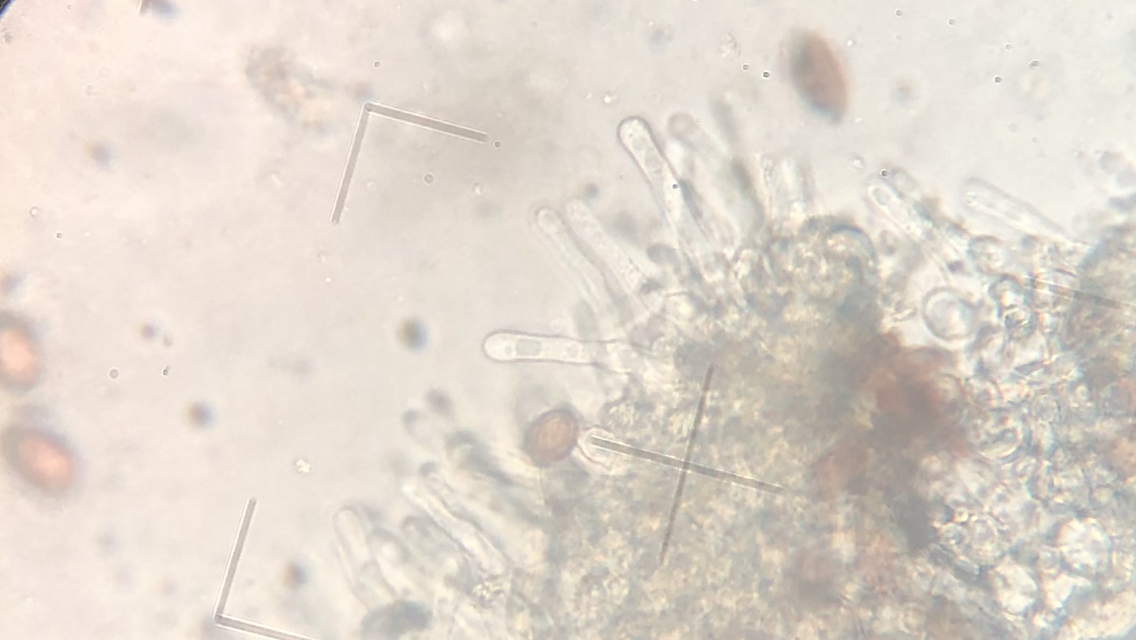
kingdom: Fungi
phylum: Basidiomycota
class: Agaricomycetes
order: Agaricales
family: Strophariaceae
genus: Protostropharia
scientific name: Protostropharia semiglobata
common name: halvkugleformet bredblad
